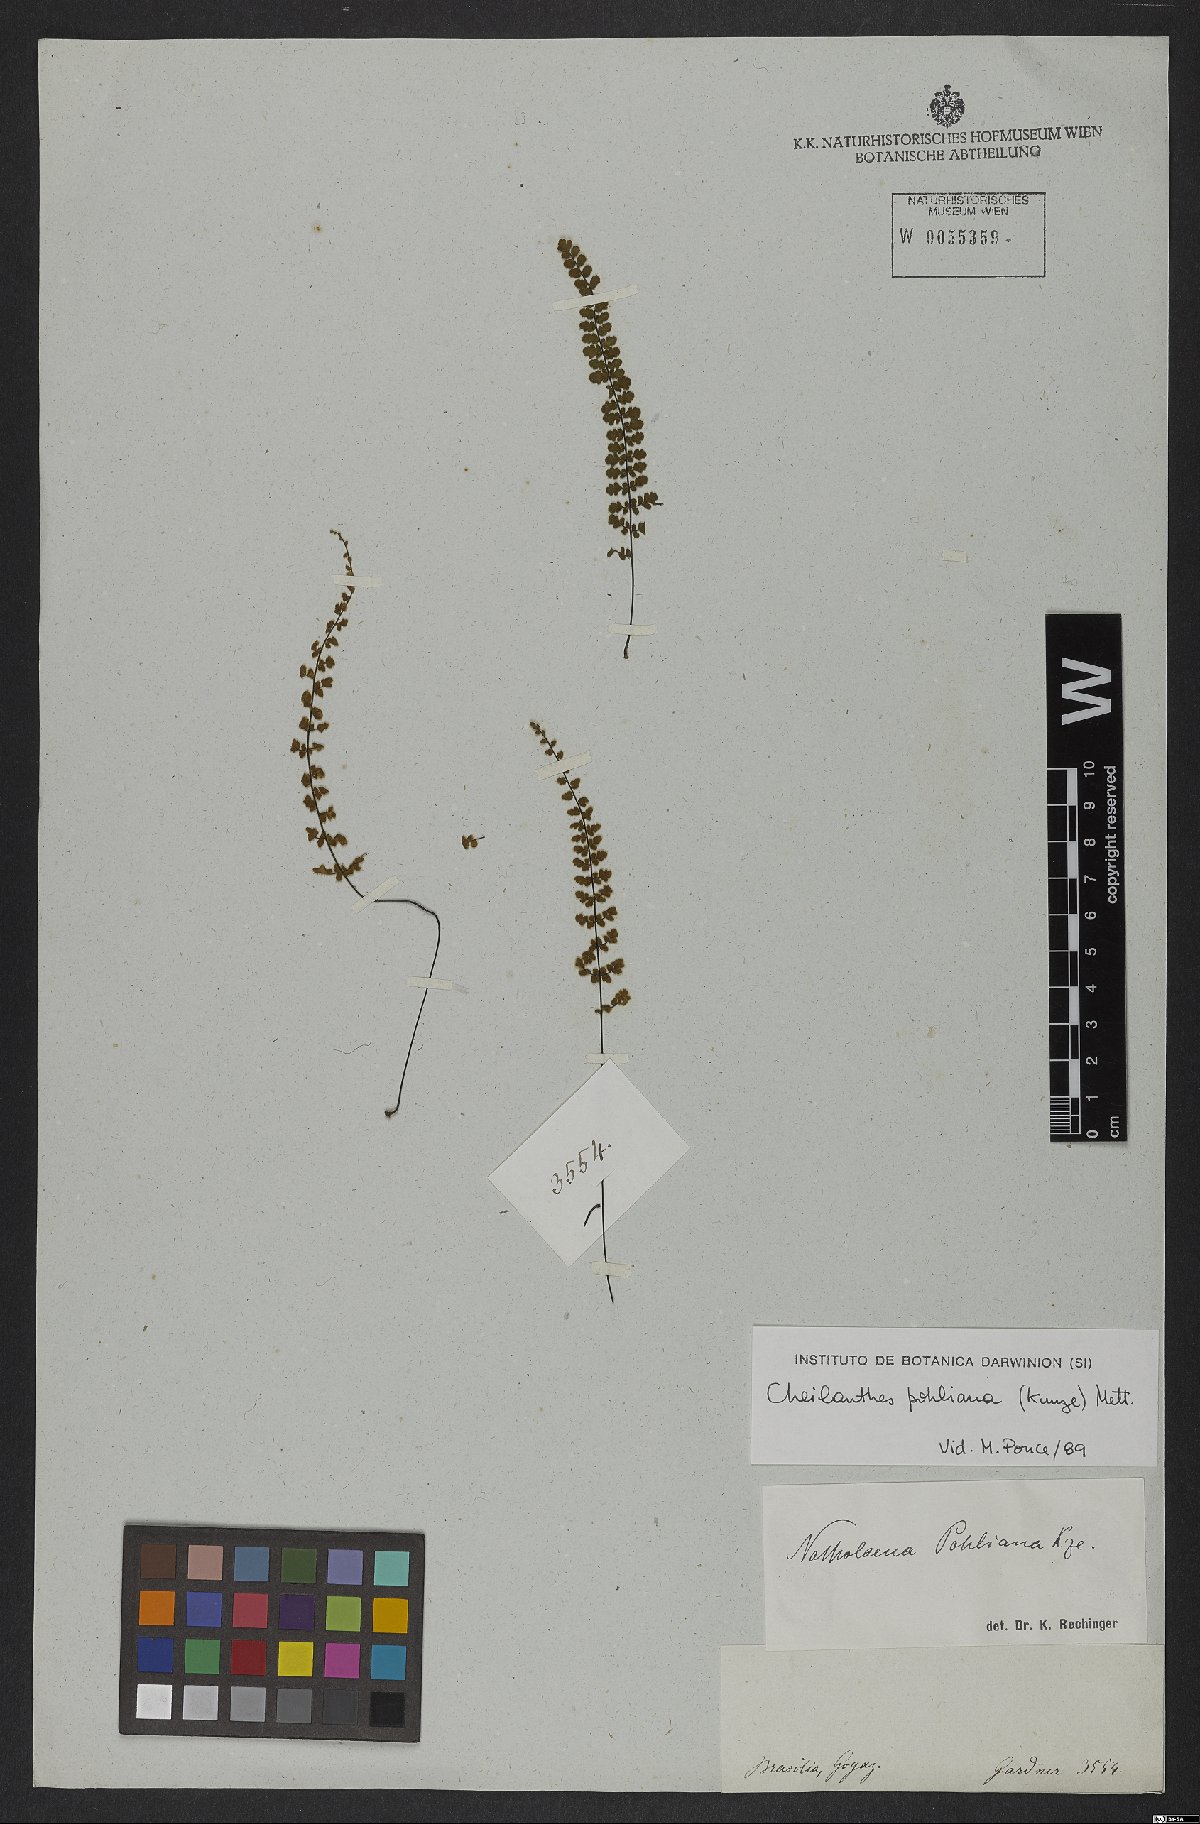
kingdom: Plantae
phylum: Tracheophyta
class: Polypodiopsida
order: Polypodiales
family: Pteridaceae
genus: Cheilanthes
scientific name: Cheilanthes pohliana
